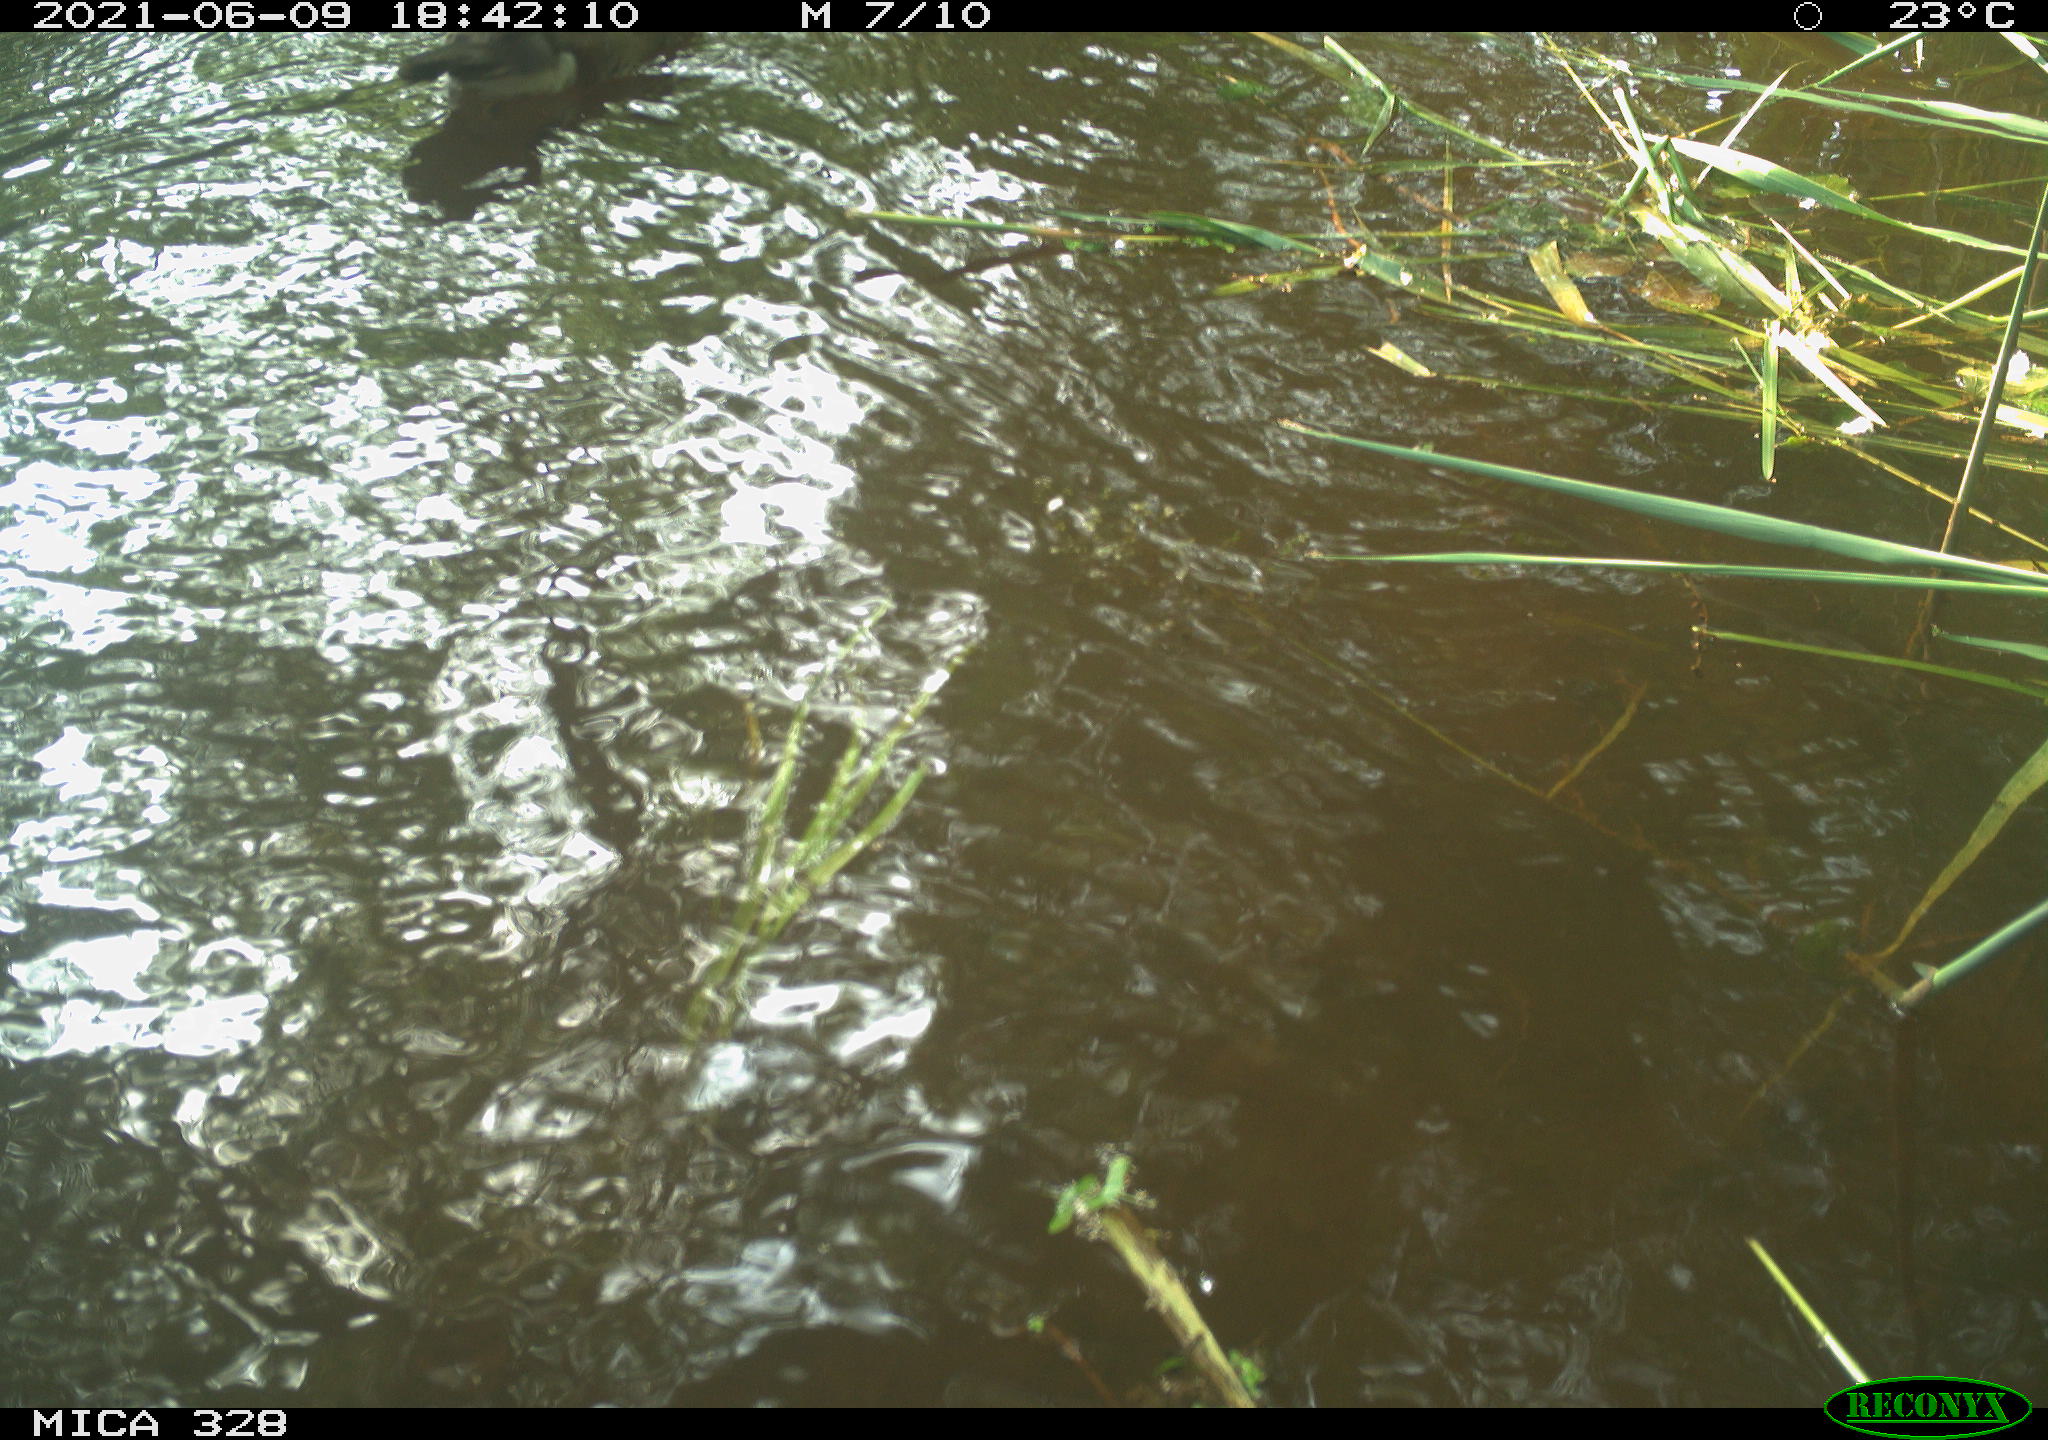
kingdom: Animalia
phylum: Chordata
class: Aves
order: Anseriformes
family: Anatidae
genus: Aix
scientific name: Aix galericulata
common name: Mandarin duck
